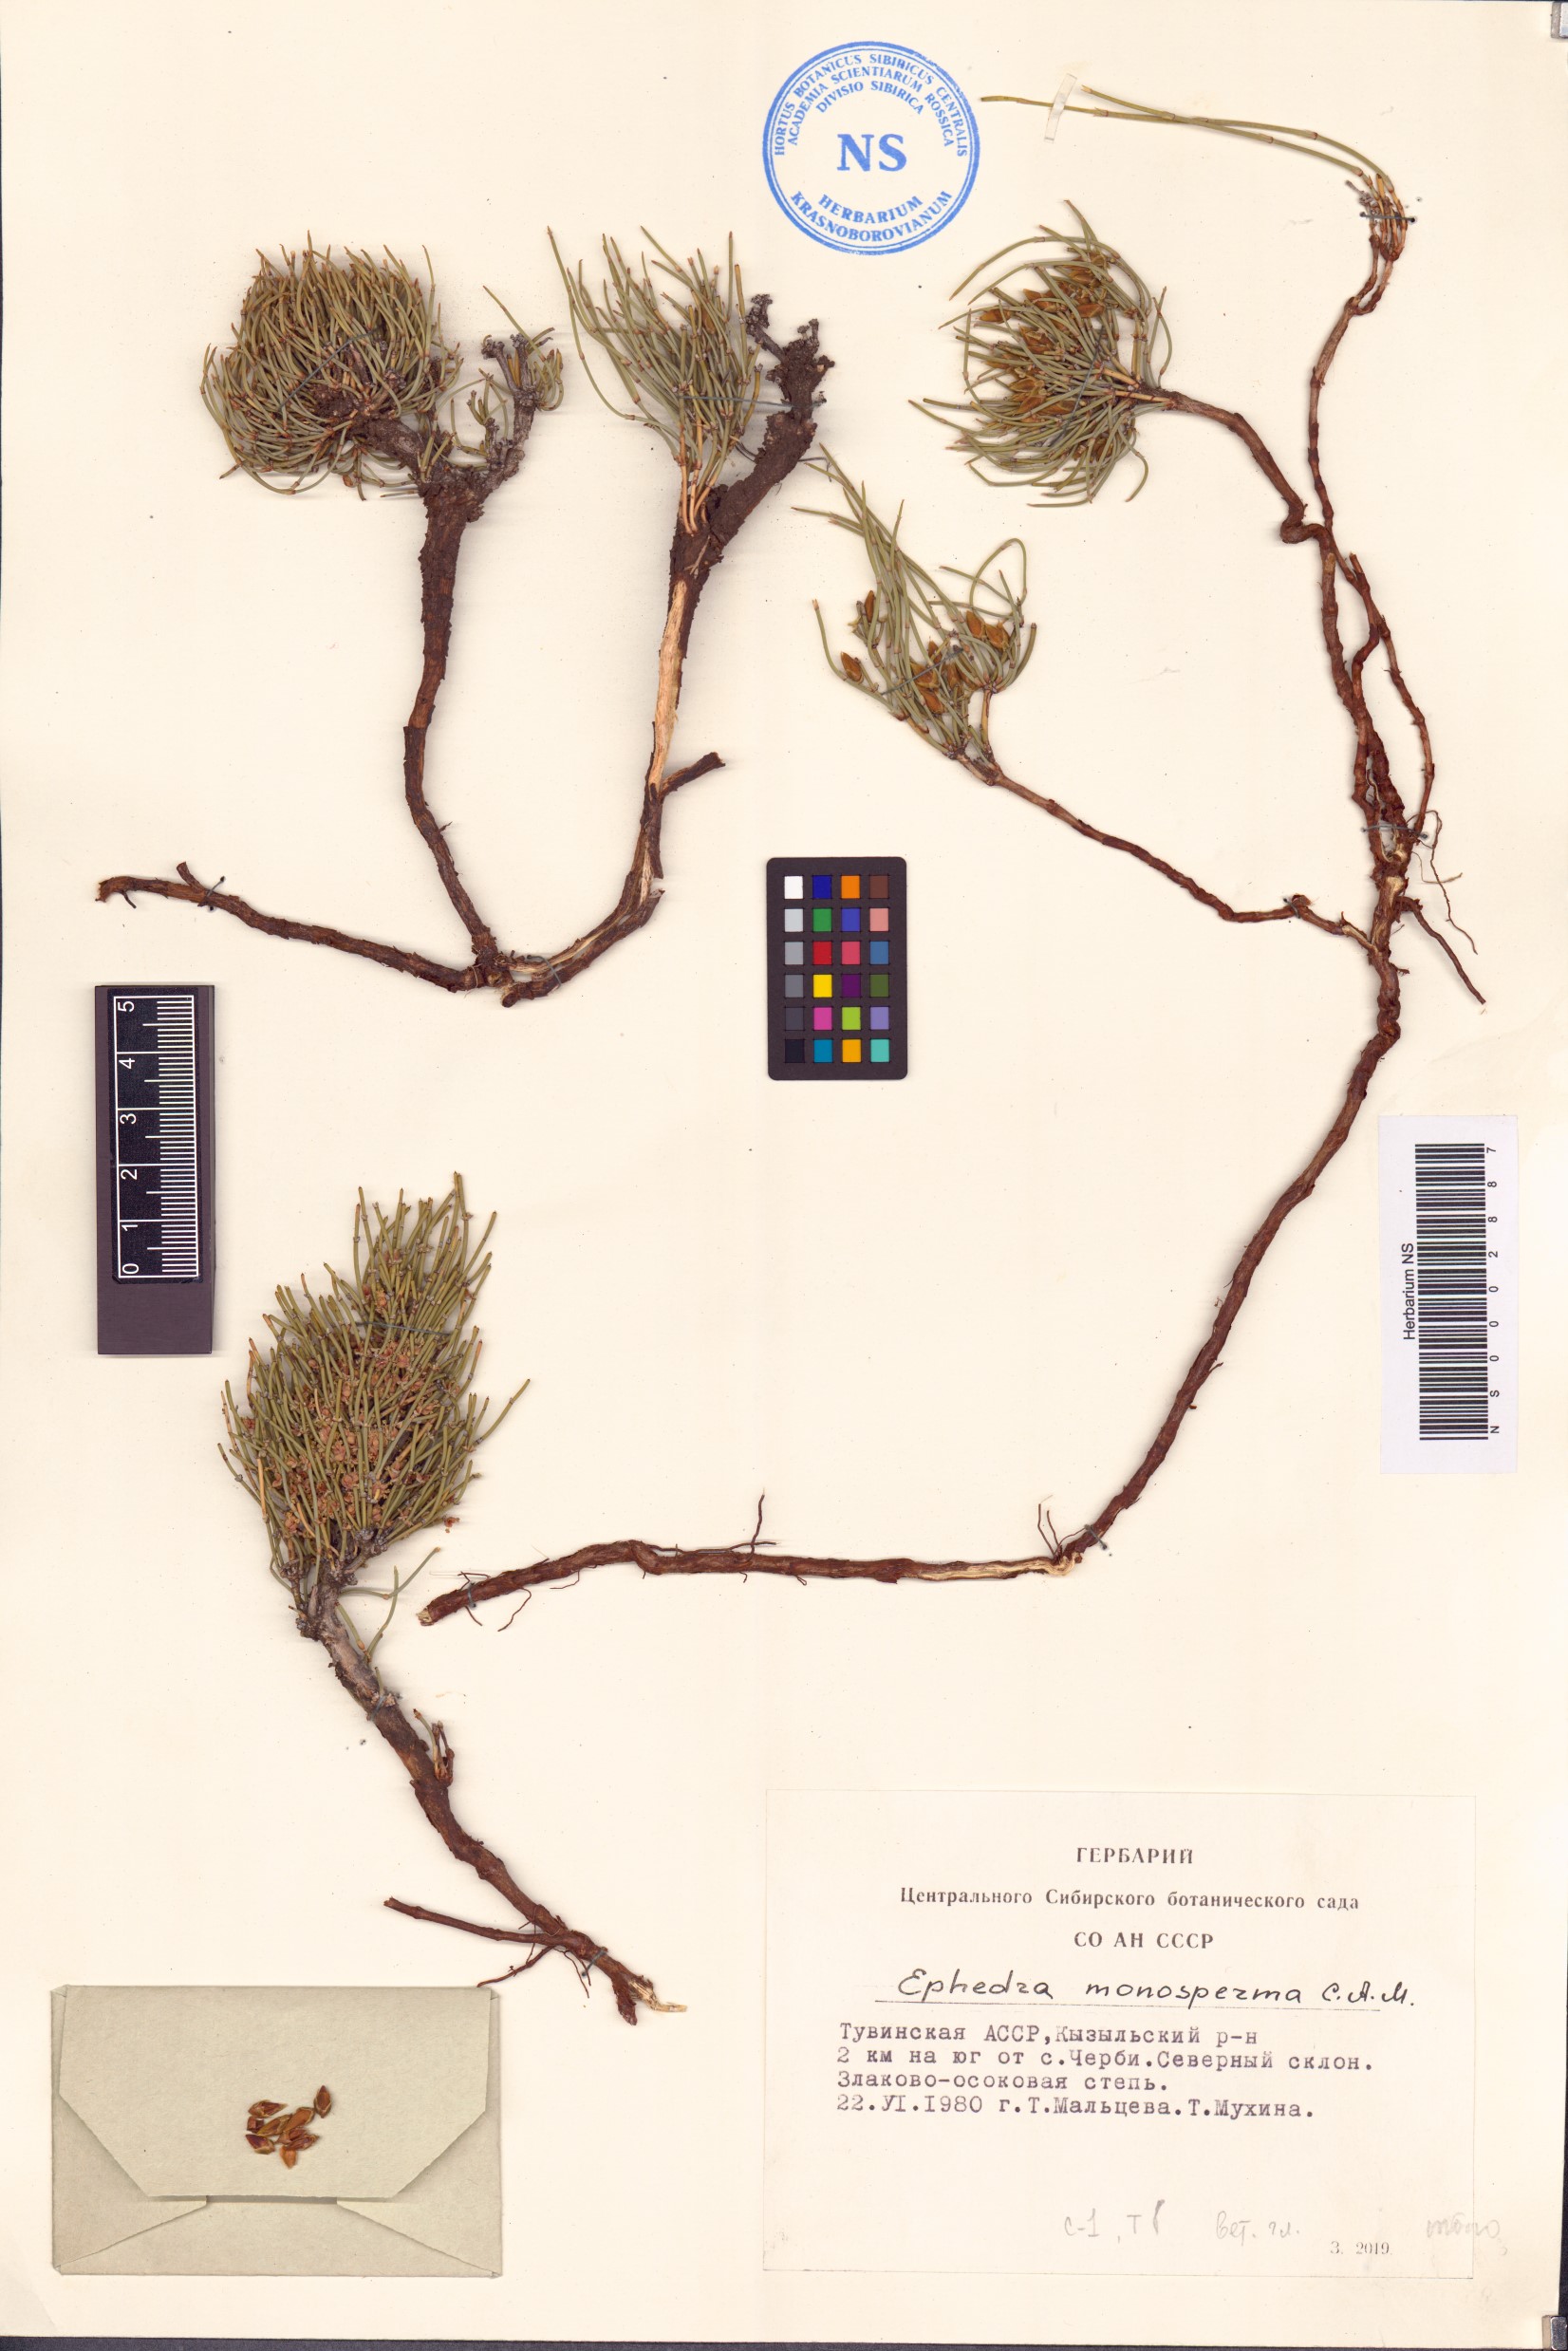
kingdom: Plantae
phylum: Tracheophyta
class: Gnetopsida
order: Ephedrales
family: Ephedraceae
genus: Ephedra
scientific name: Ephedra monosperma
